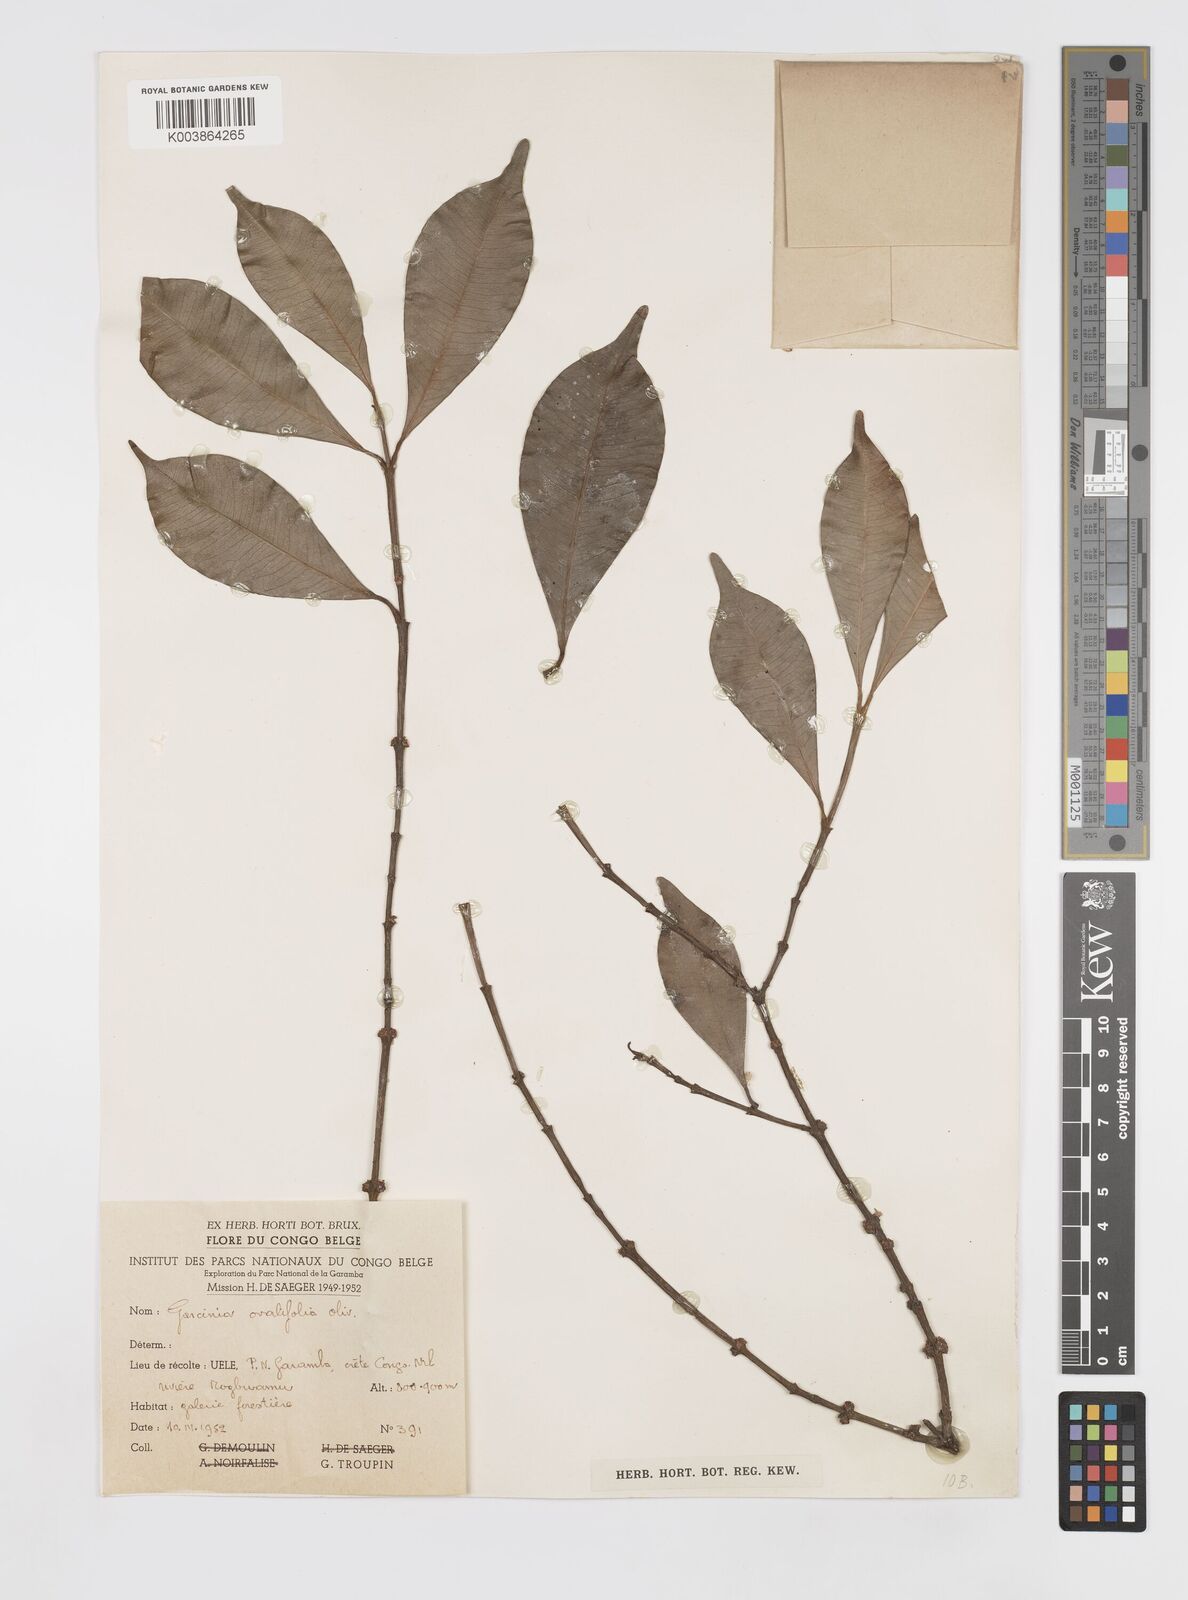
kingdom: Plantae
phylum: Tracheophyta
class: Magnoliopsida
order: Malpighiales
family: Clusiaceae
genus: Garcinia
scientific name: Garcinia ovalifolia
